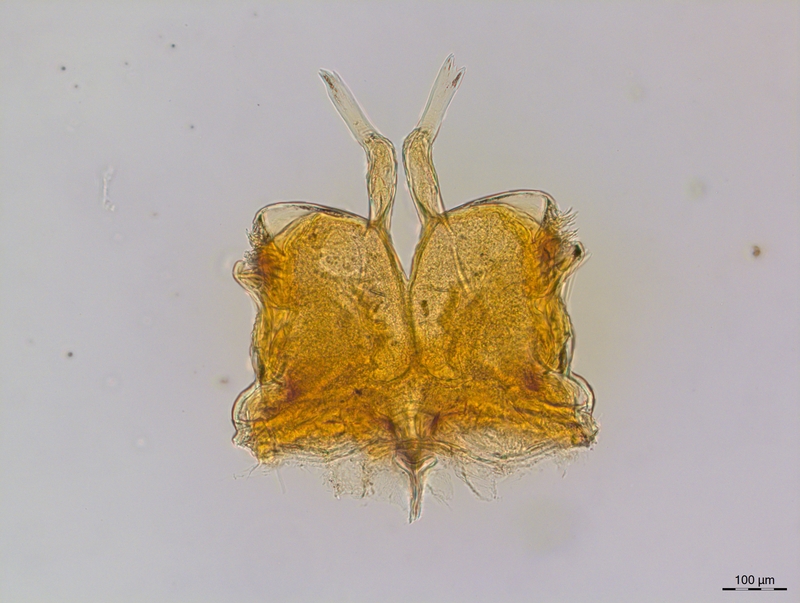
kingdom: Animalia
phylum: Arthropoda
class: Diplopoda
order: Chordeumatida
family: Craspedosomatidae
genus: Craspedosoma
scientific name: Craspedosoma rawlinsii
